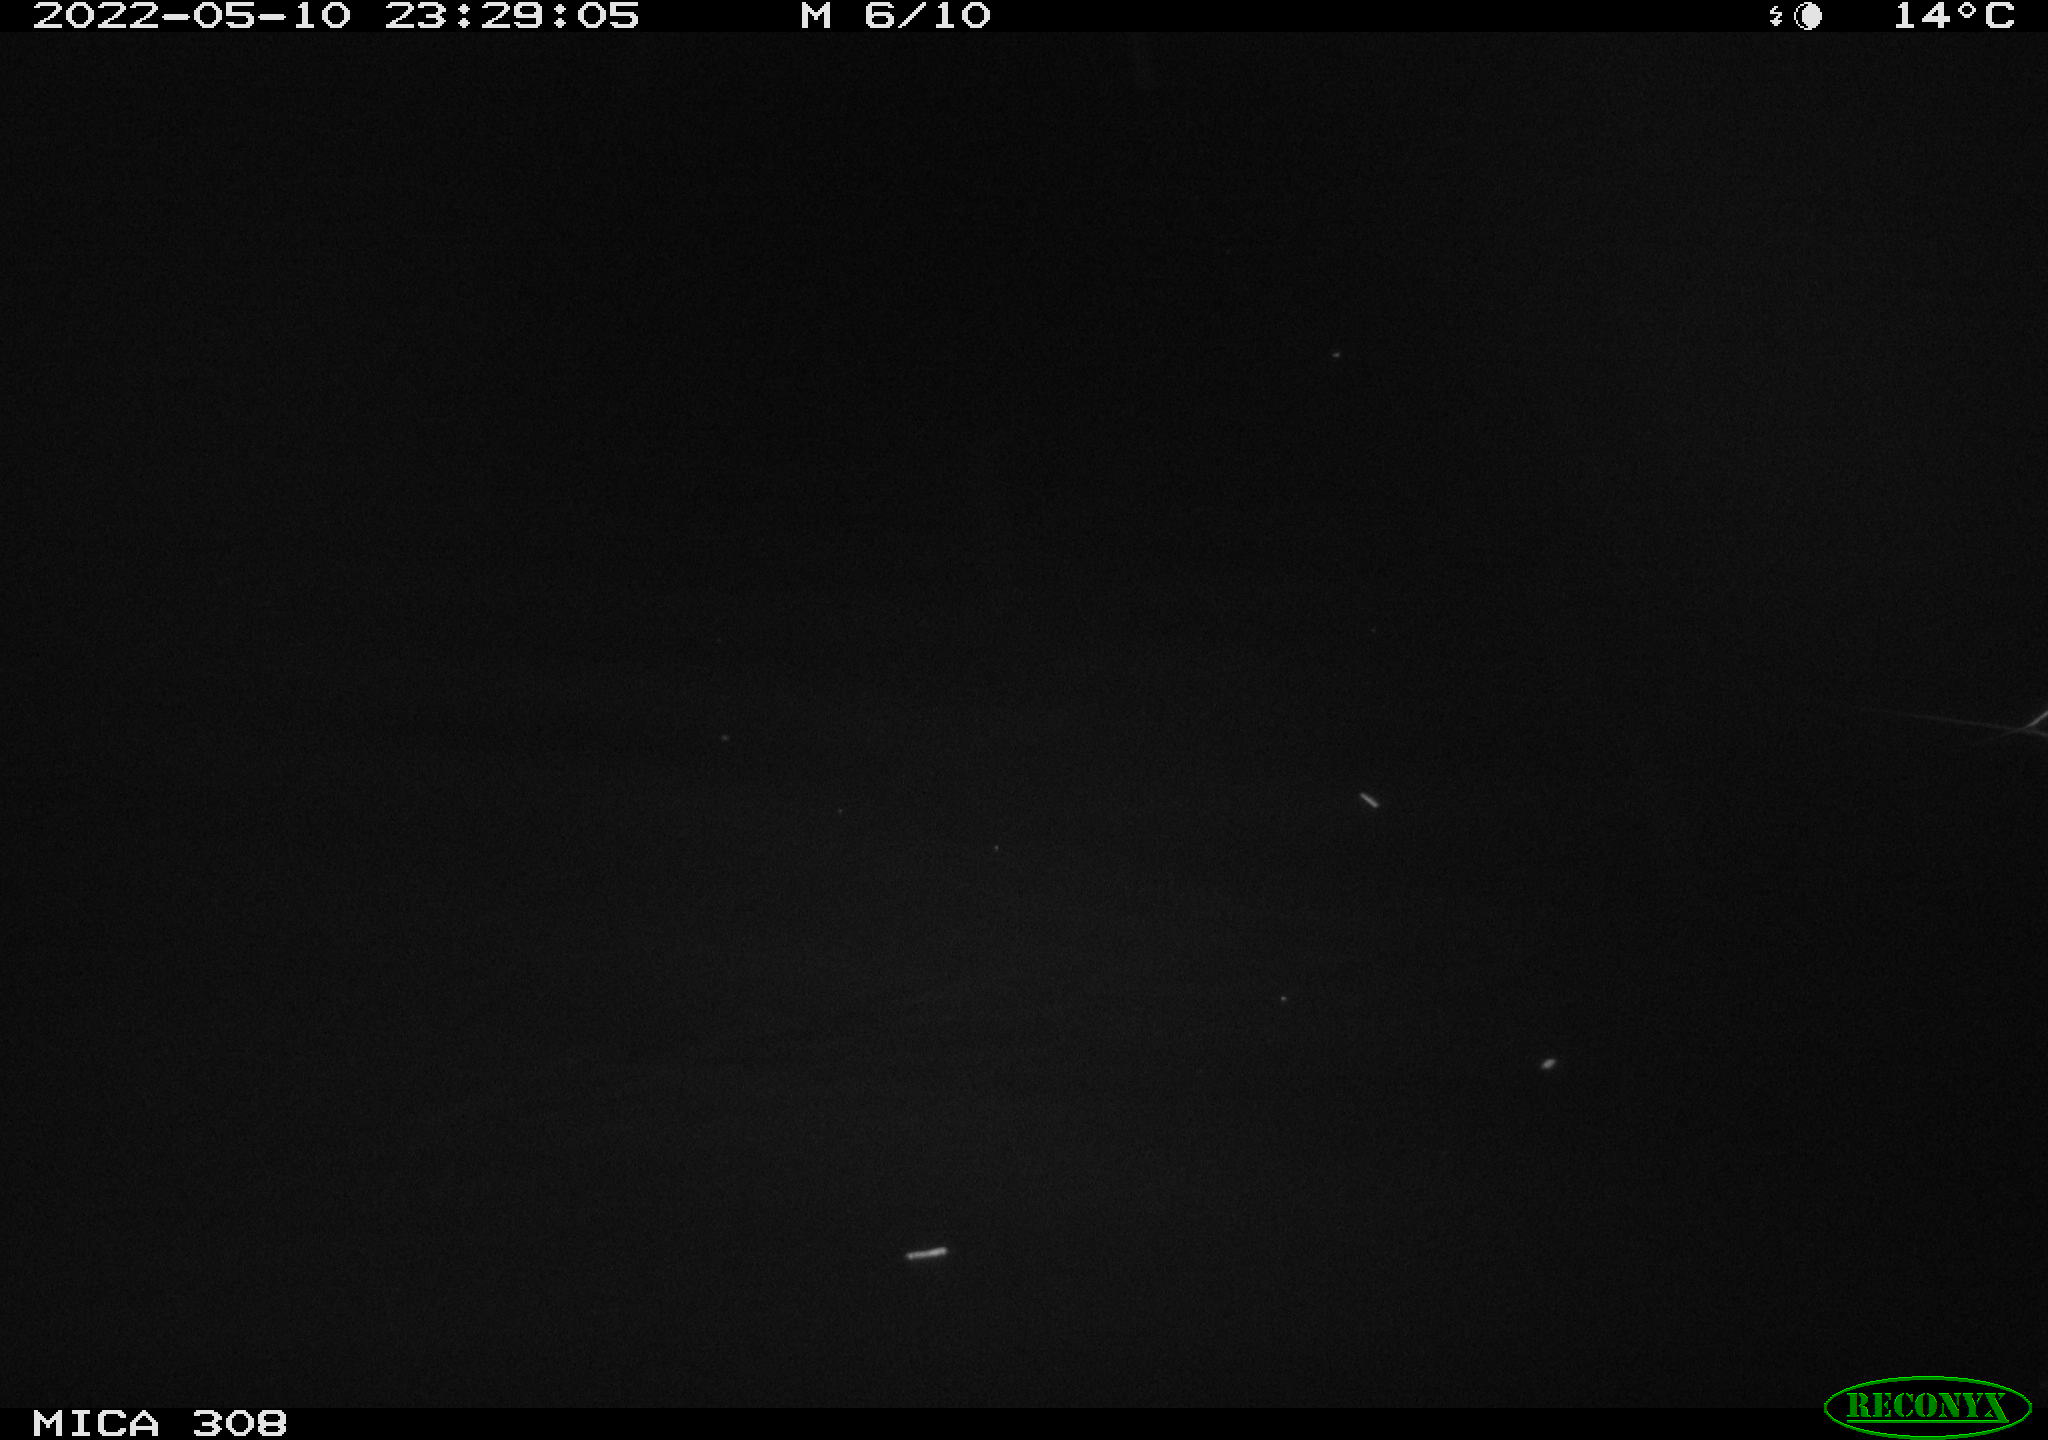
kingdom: Animalia
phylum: Chordata
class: Mammalia
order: Rodentia
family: Muridae
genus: Rattus
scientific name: Rattus norvegicus
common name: Brown rat
